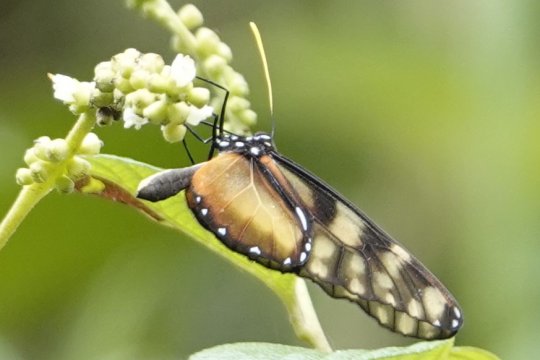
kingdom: Animalia
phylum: Arthropoda
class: Insecta
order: Lepidoptera
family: Nymphalidae
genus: Dircenna
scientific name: Dircenna klugii
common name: Klug’s Clearwing
